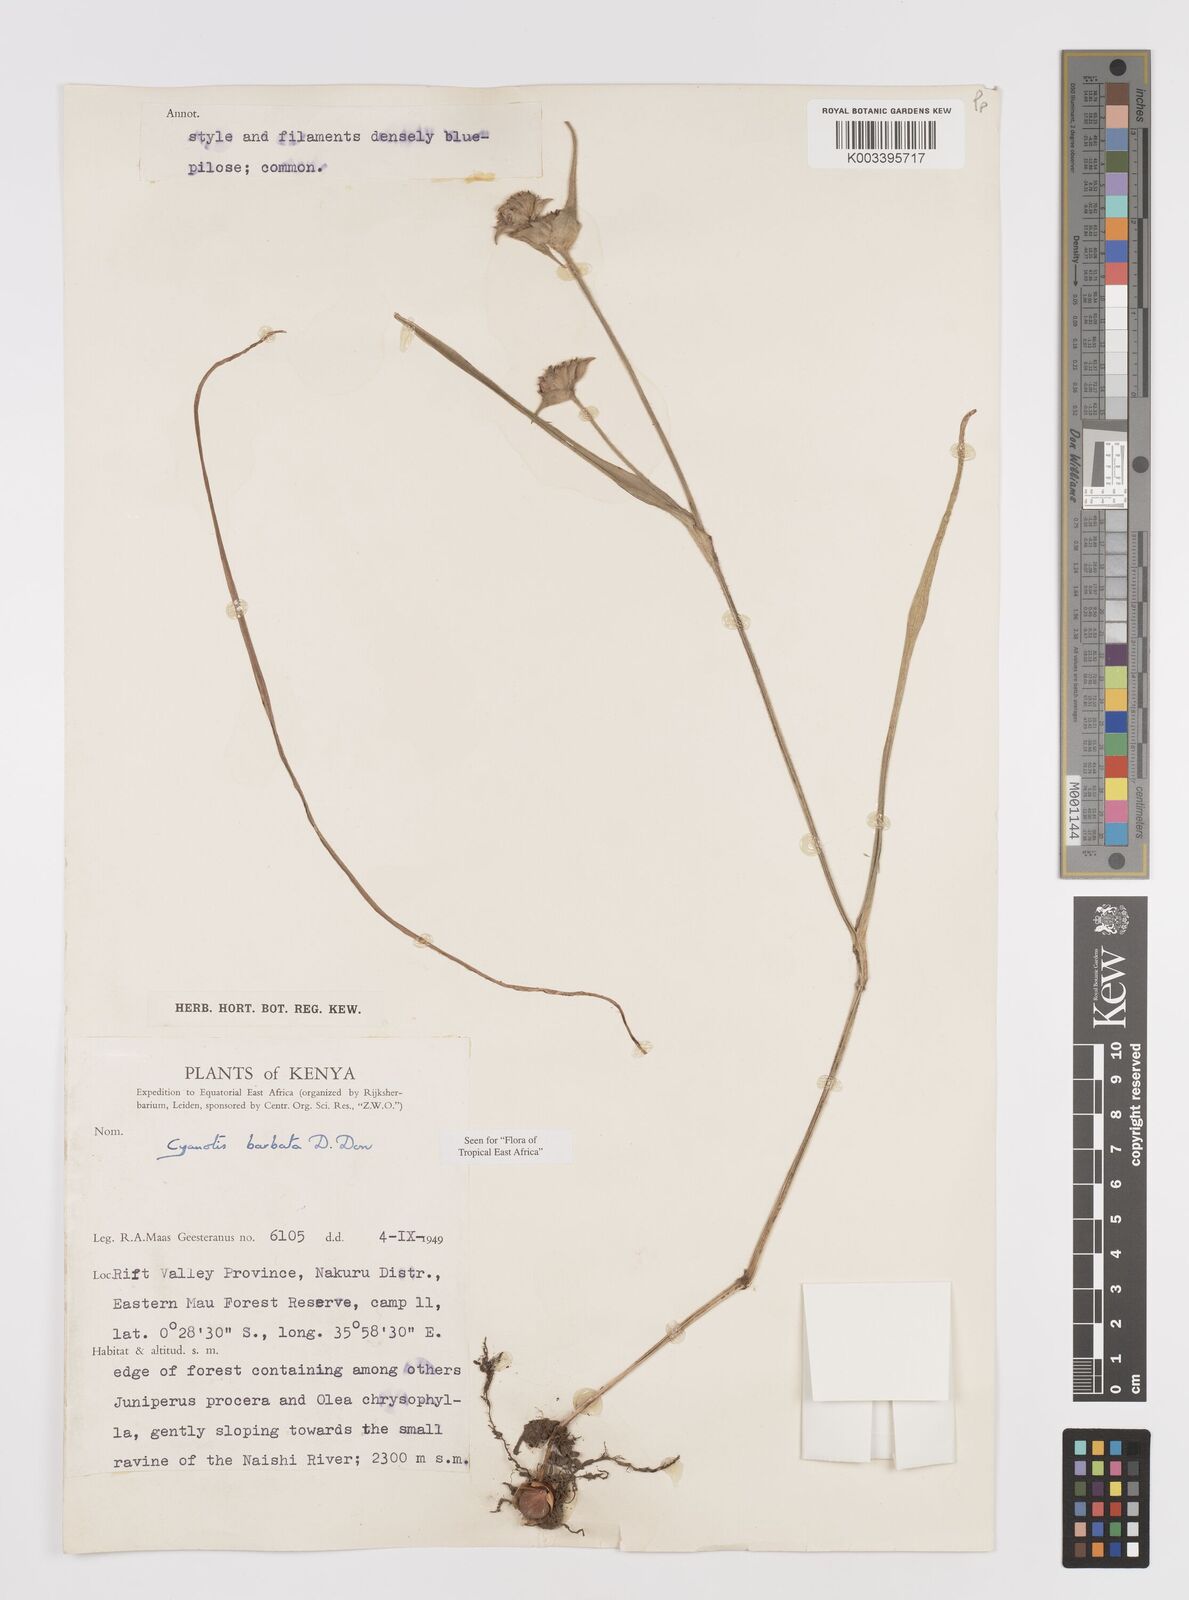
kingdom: Plantae
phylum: Tracheophyta
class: Liliopsida
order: Commelinales
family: Commelinaceae
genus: Cyanotis
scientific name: Cyanotis vaga
